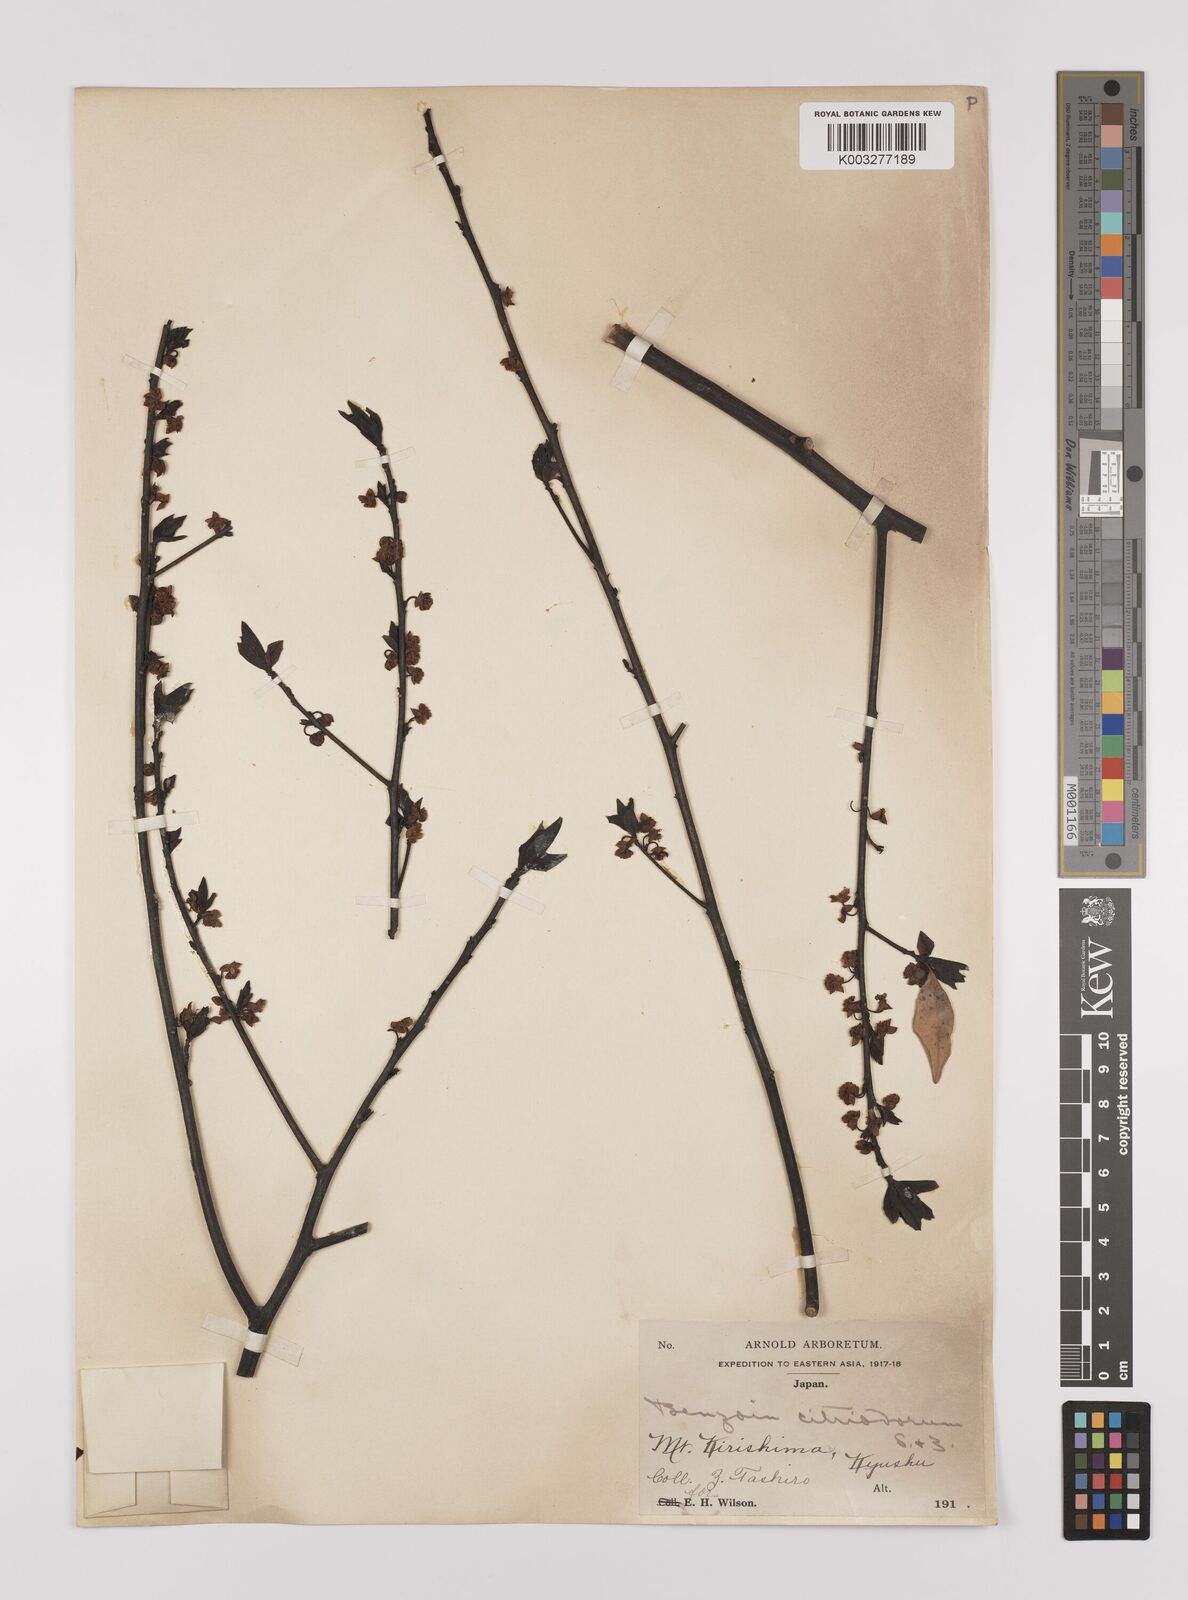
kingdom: Plantae
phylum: Tracheophyta
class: Magnoliopsida
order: Laurales
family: Lauraceae
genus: Lindera
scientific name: Lindera citriodora
